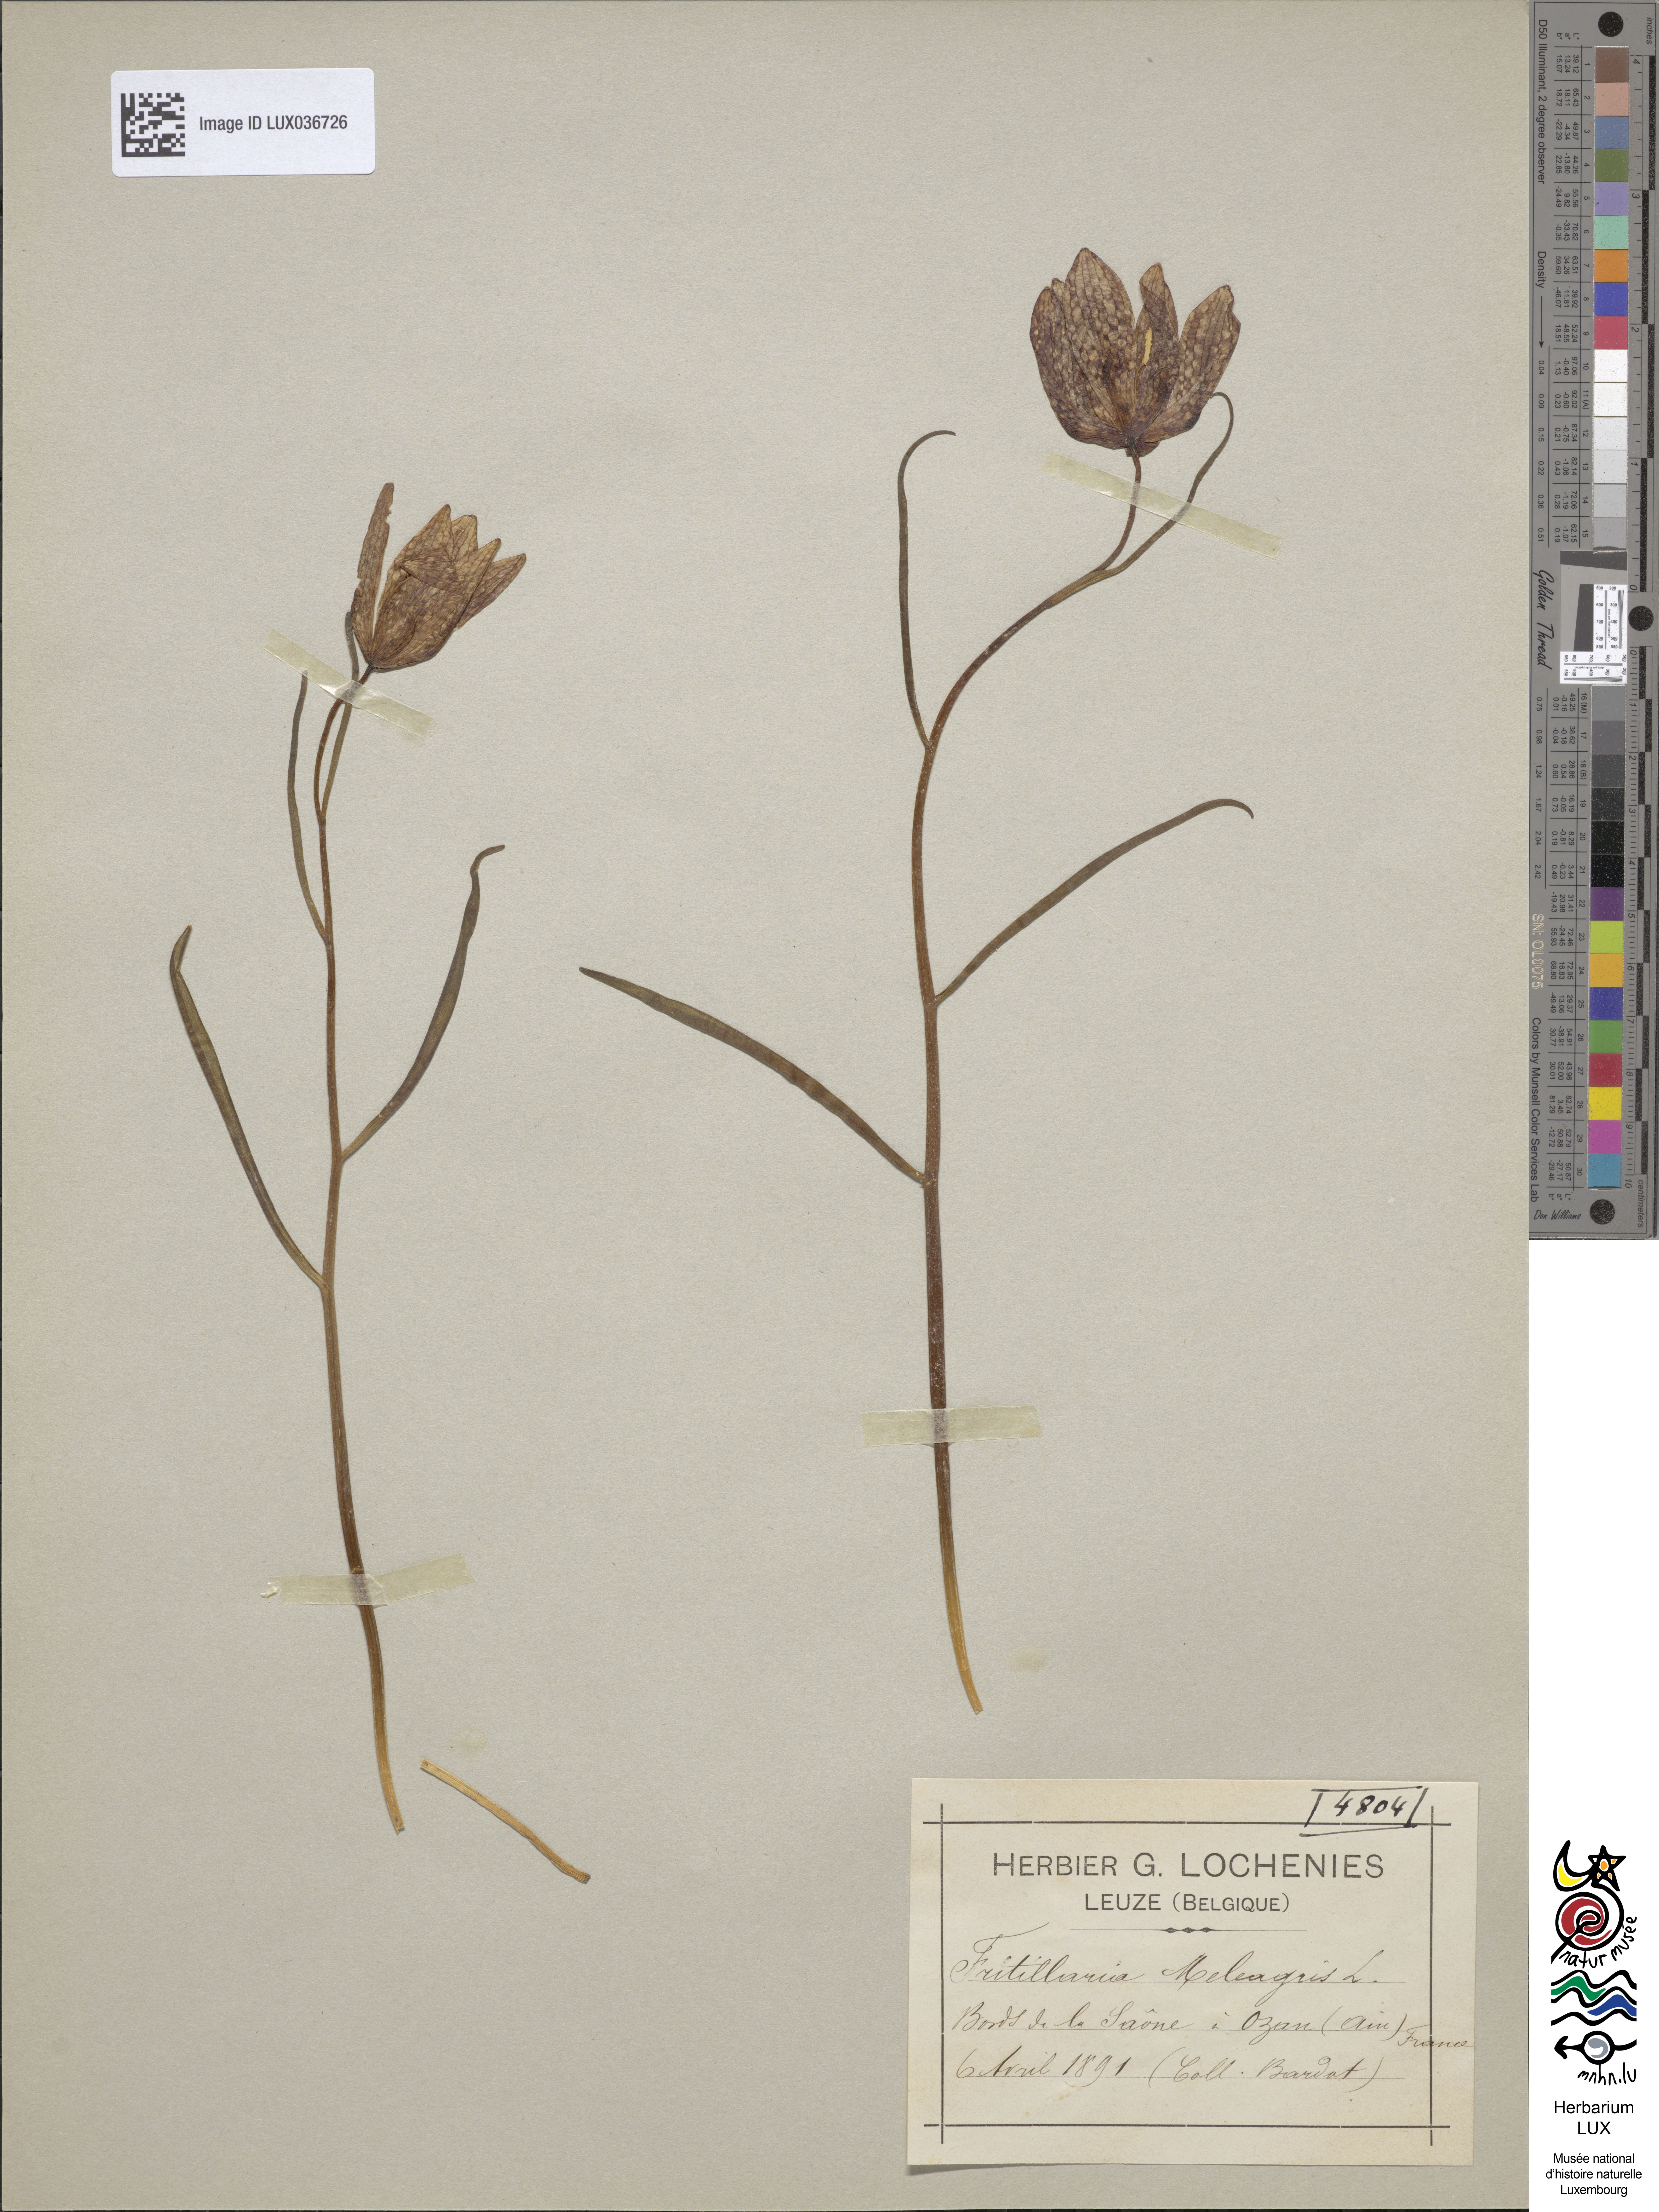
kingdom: Plantae
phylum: Tracheophyta
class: Liliopsida
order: Liliales
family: Liliaceae
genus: Fritillaria
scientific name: Fritillaria meleagris
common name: Fritillary
